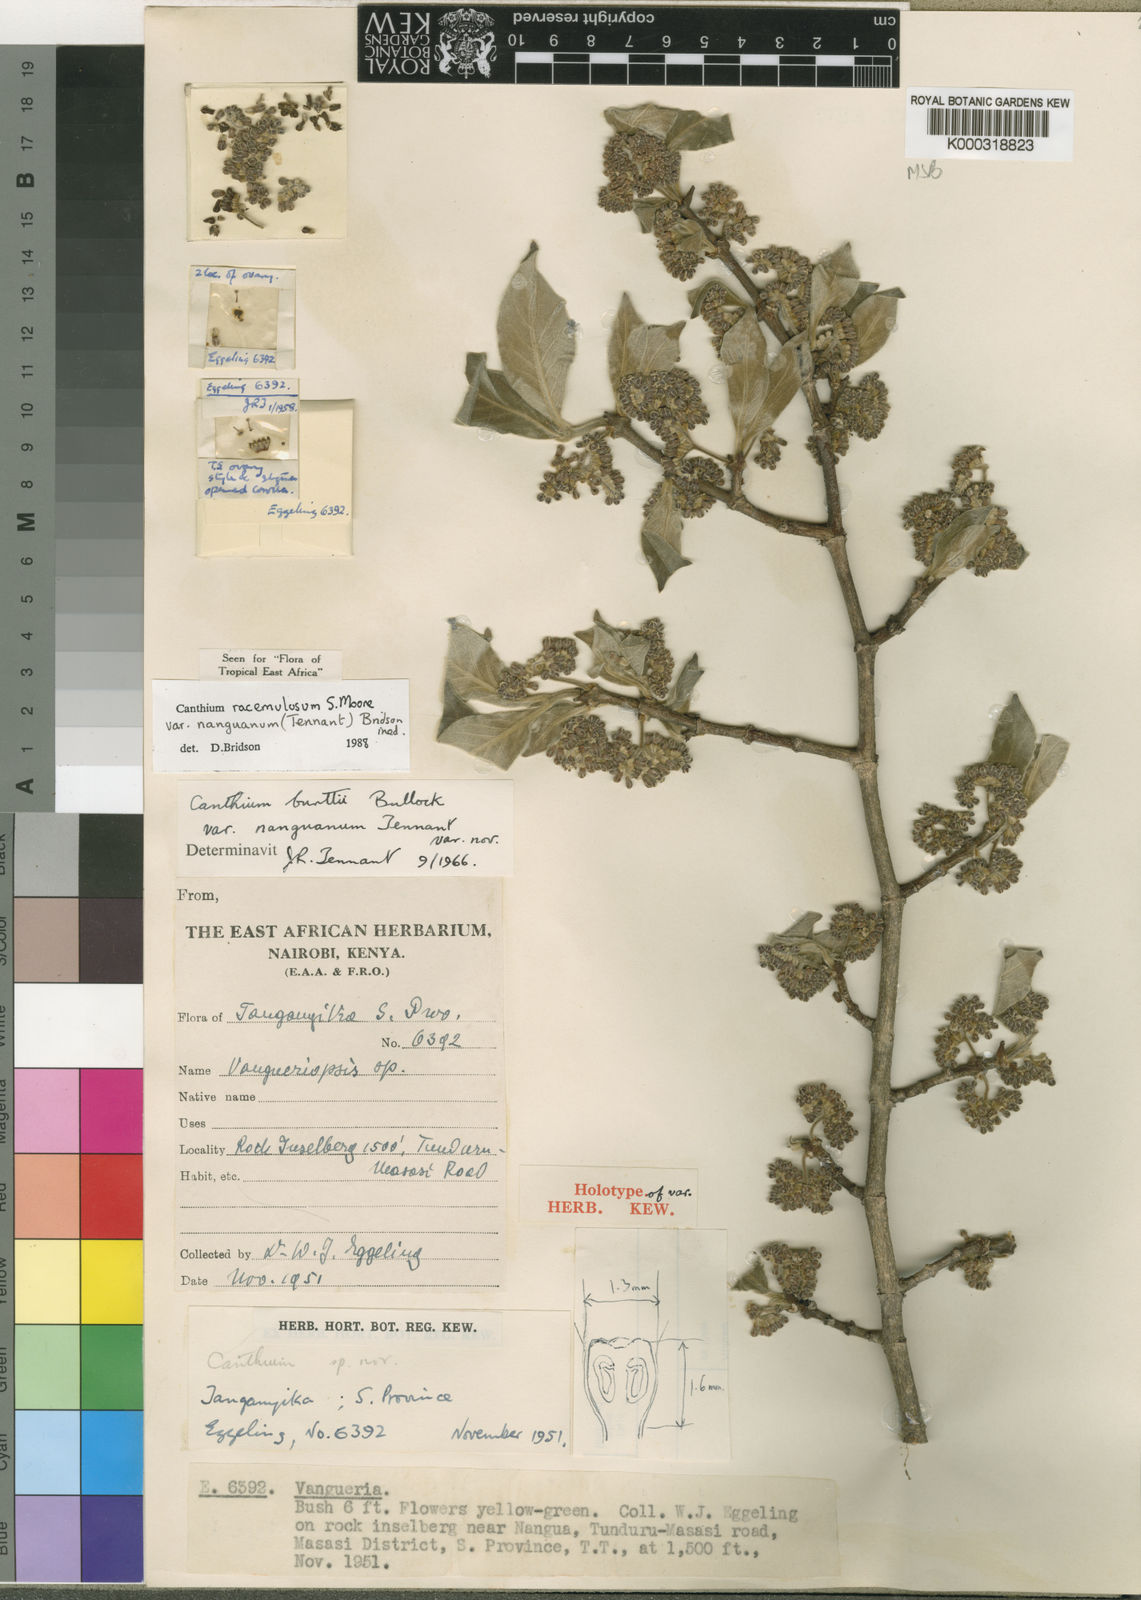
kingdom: Plantae
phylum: Tracheophyta
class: Magnoliopsida
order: Gentianales
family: Rubiaceae
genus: Afrocanthium
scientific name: Afrocanthium racemulosum
